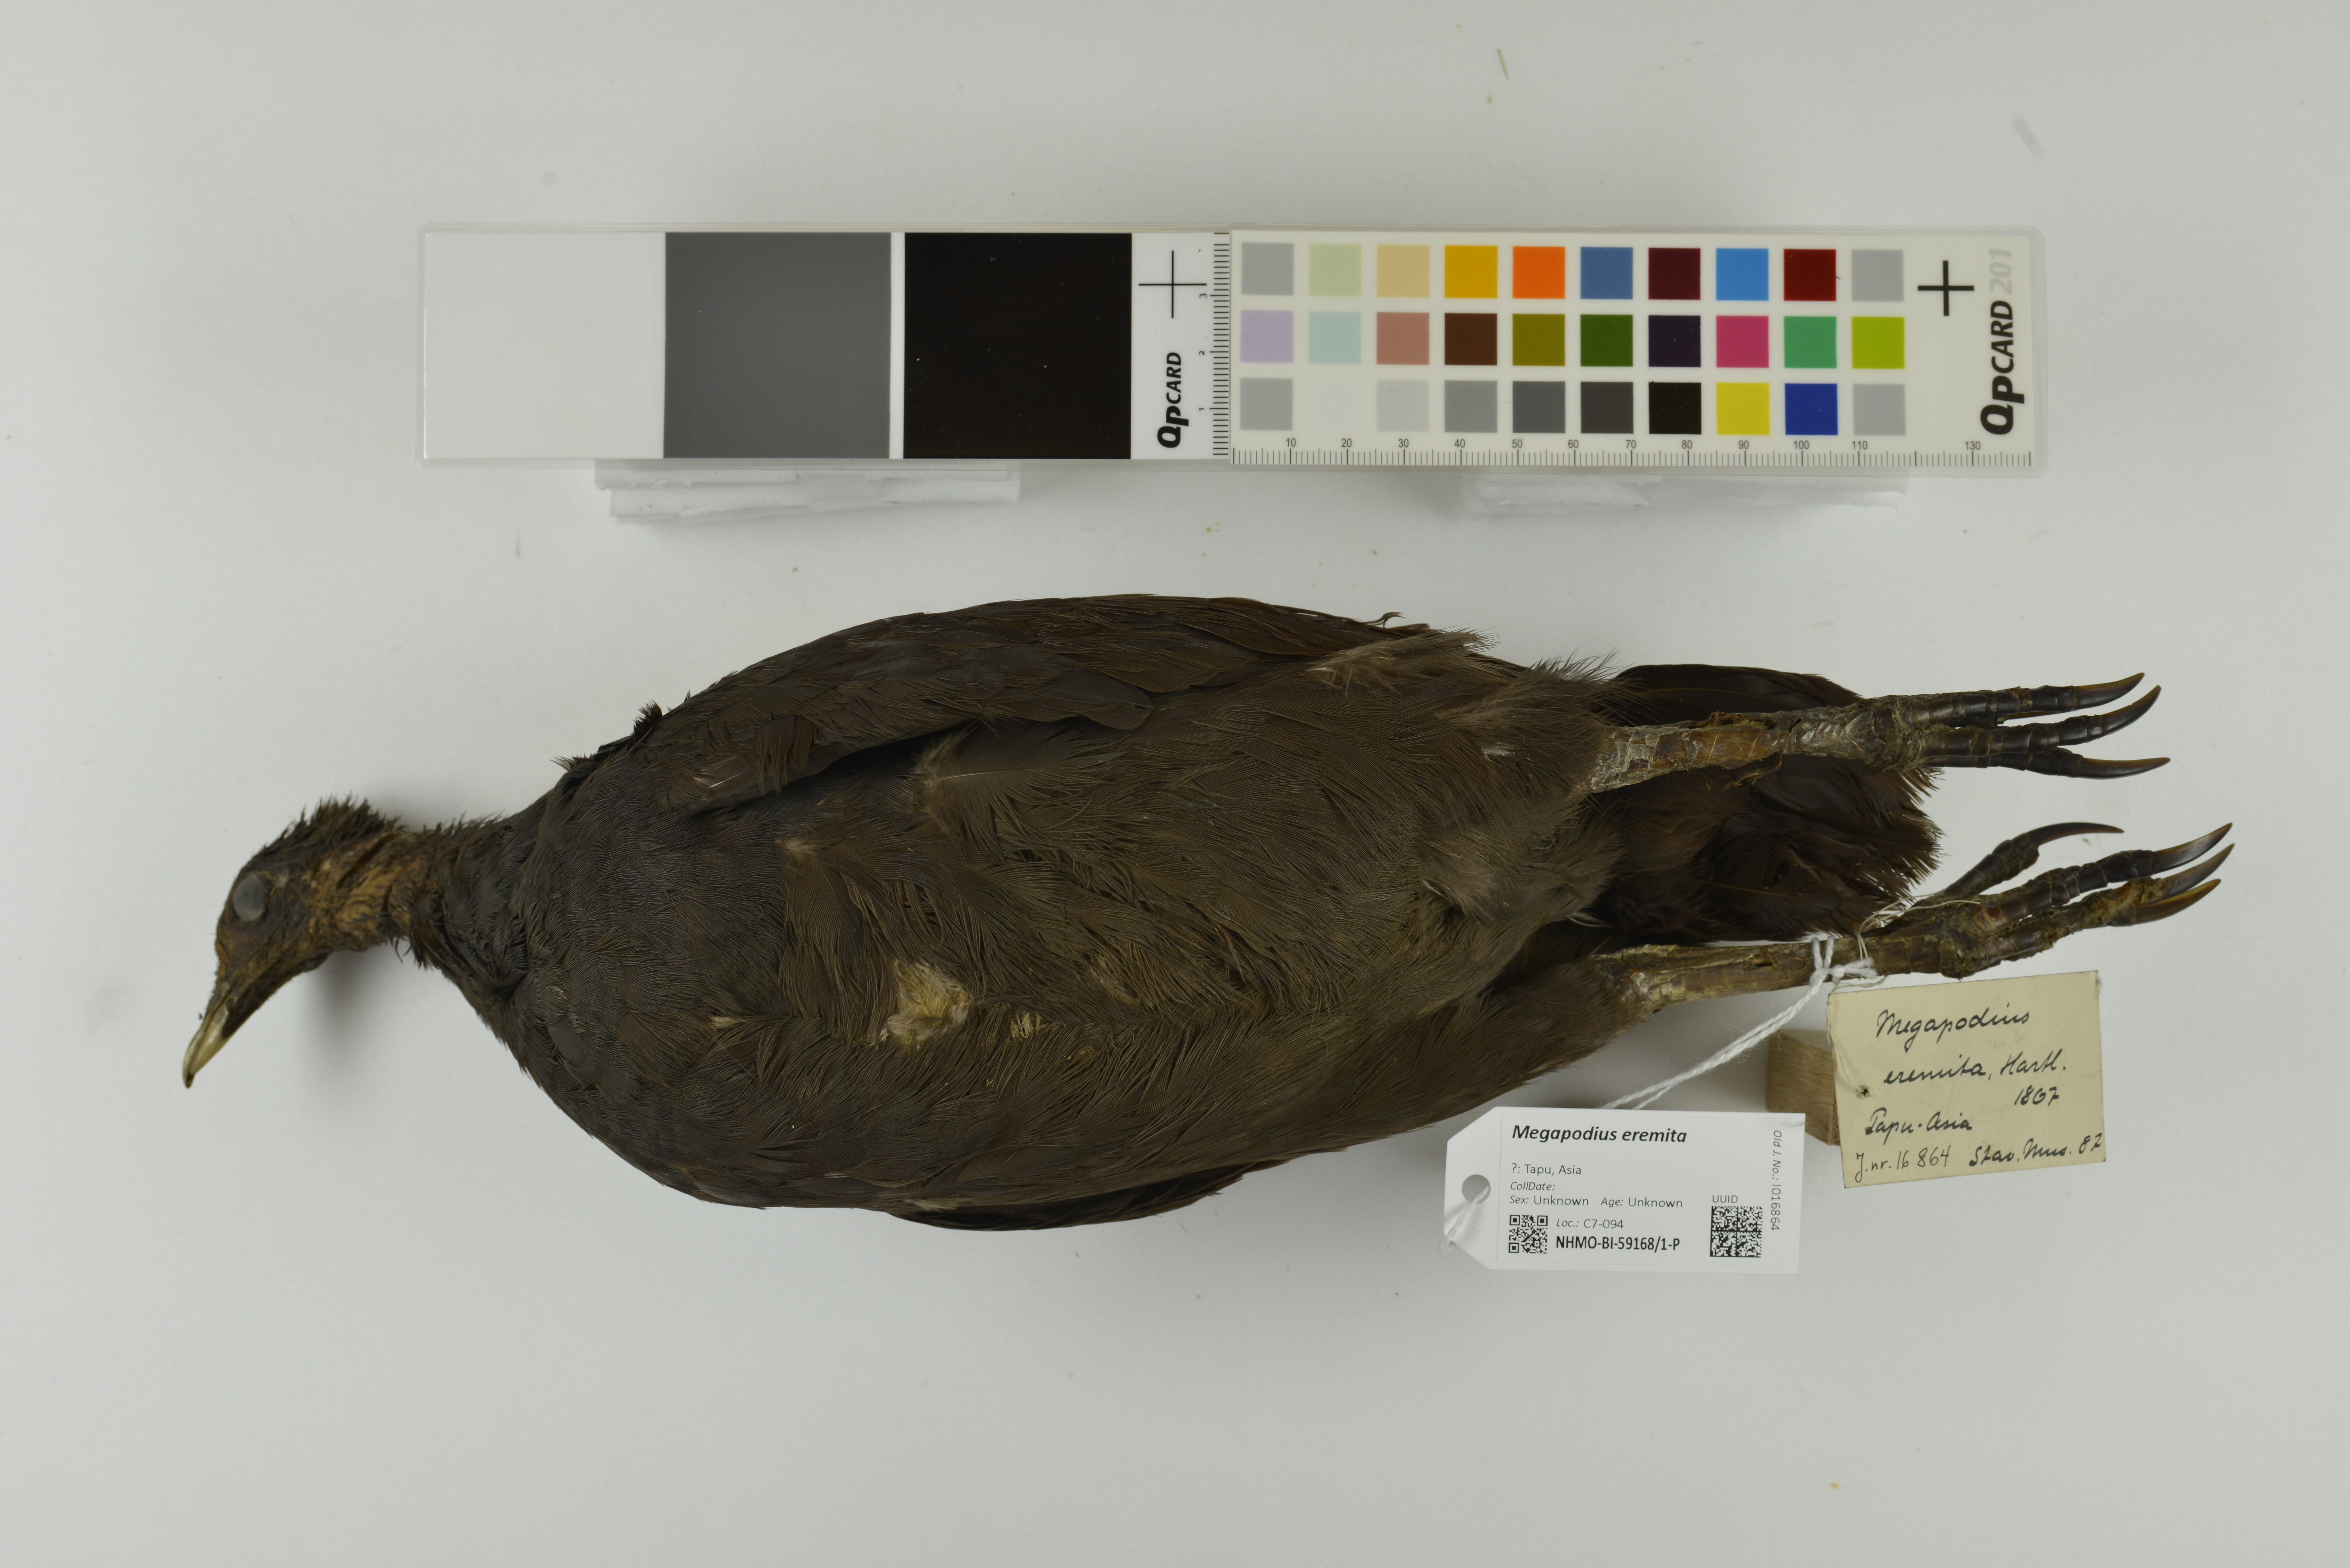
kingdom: Animalia
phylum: Chordata
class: Aves
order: Galliformes
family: Megapodiidae
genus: Megapodius
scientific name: Megapodius eremita
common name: Melanesian megapode
